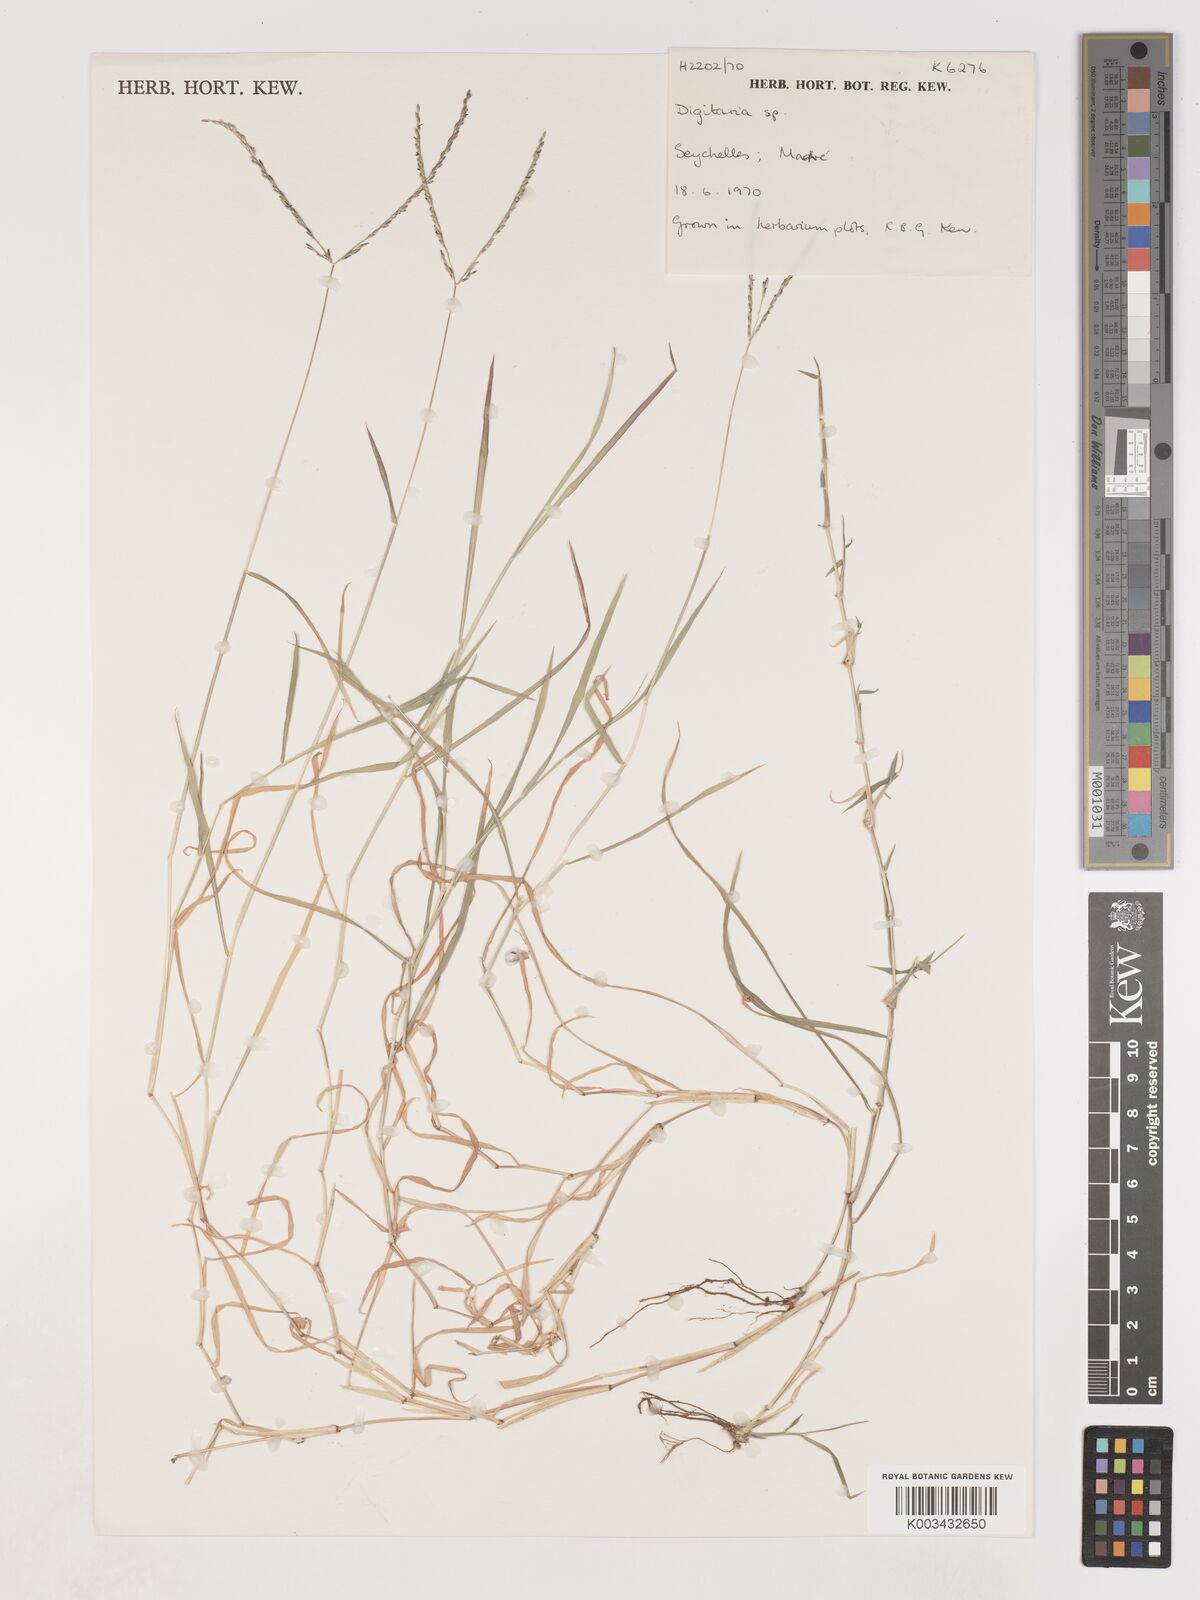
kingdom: Plantae
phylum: Tracheophyta
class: Liliopsida
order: Poales
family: Poaceae
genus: Digitaria
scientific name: Digitaria didactyla
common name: Blue couch
